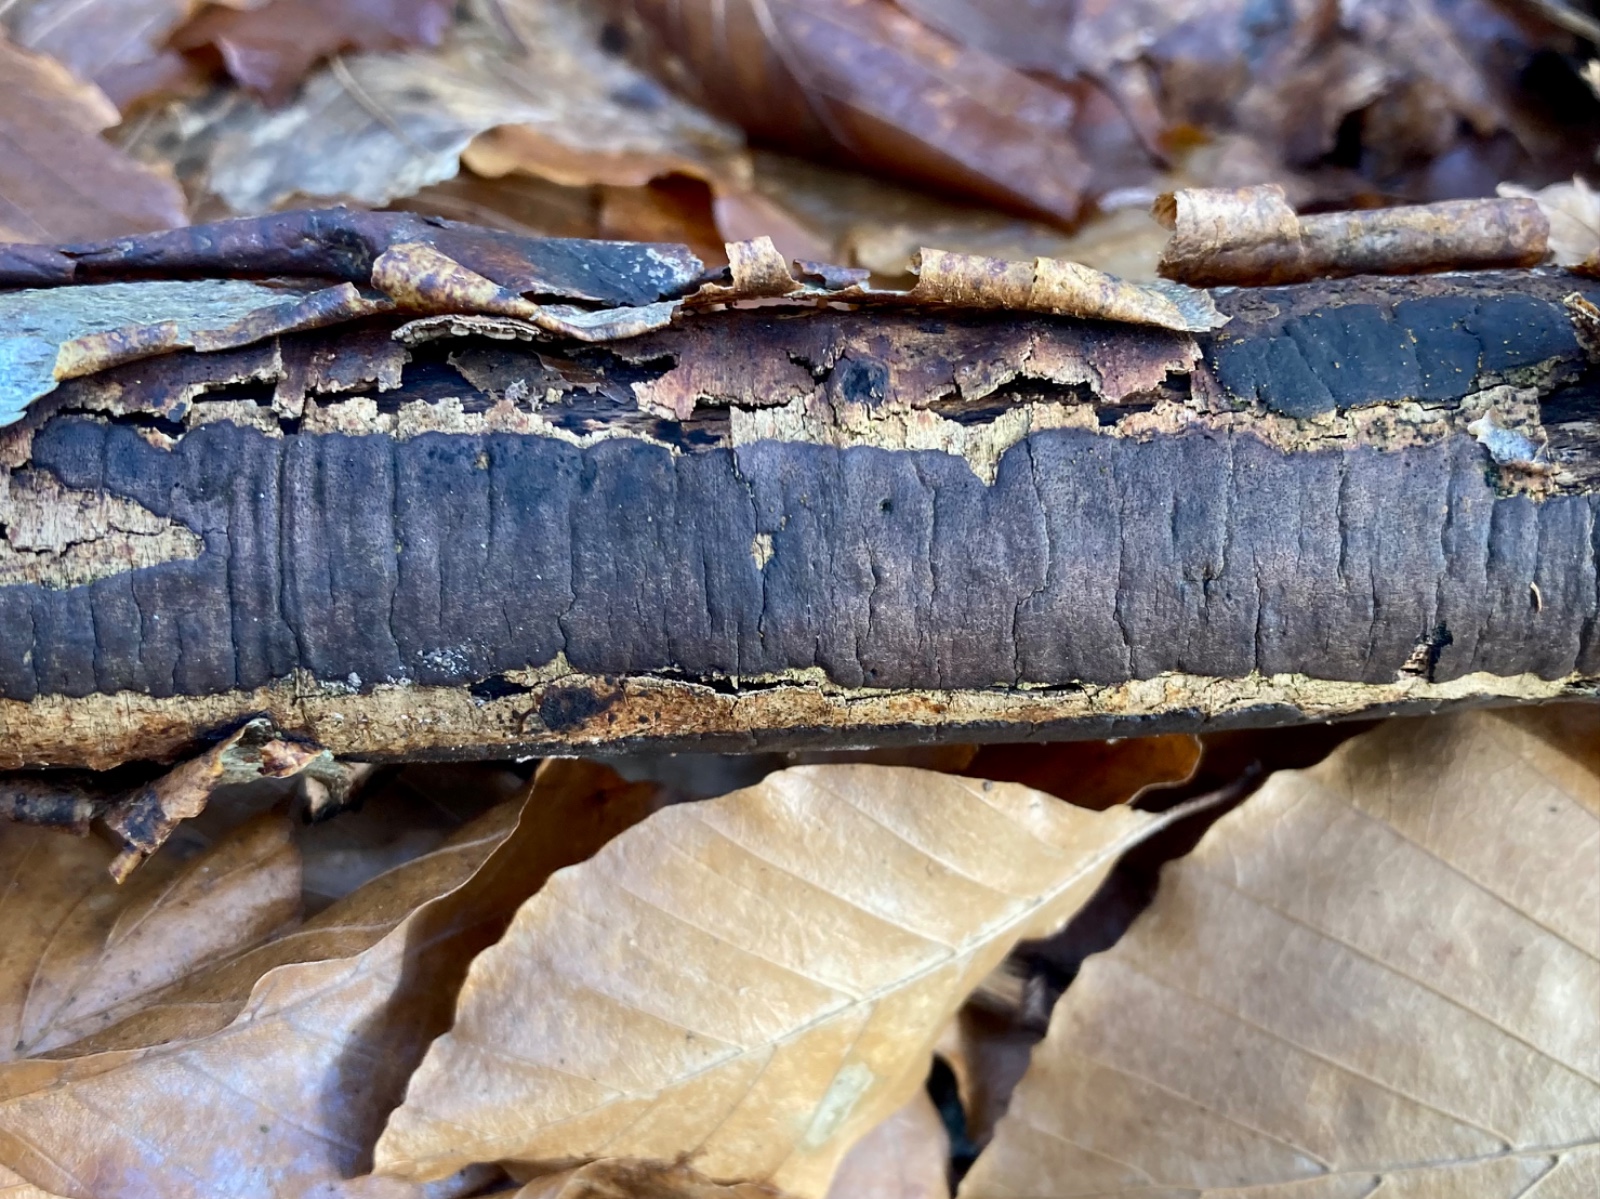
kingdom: Fungi
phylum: Ascomycota
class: Sordariomycetes
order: Xylariales
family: Diatrypaceae
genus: Diatrype
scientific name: Diatrype decorticata
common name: barksprænger-kulskorpe
